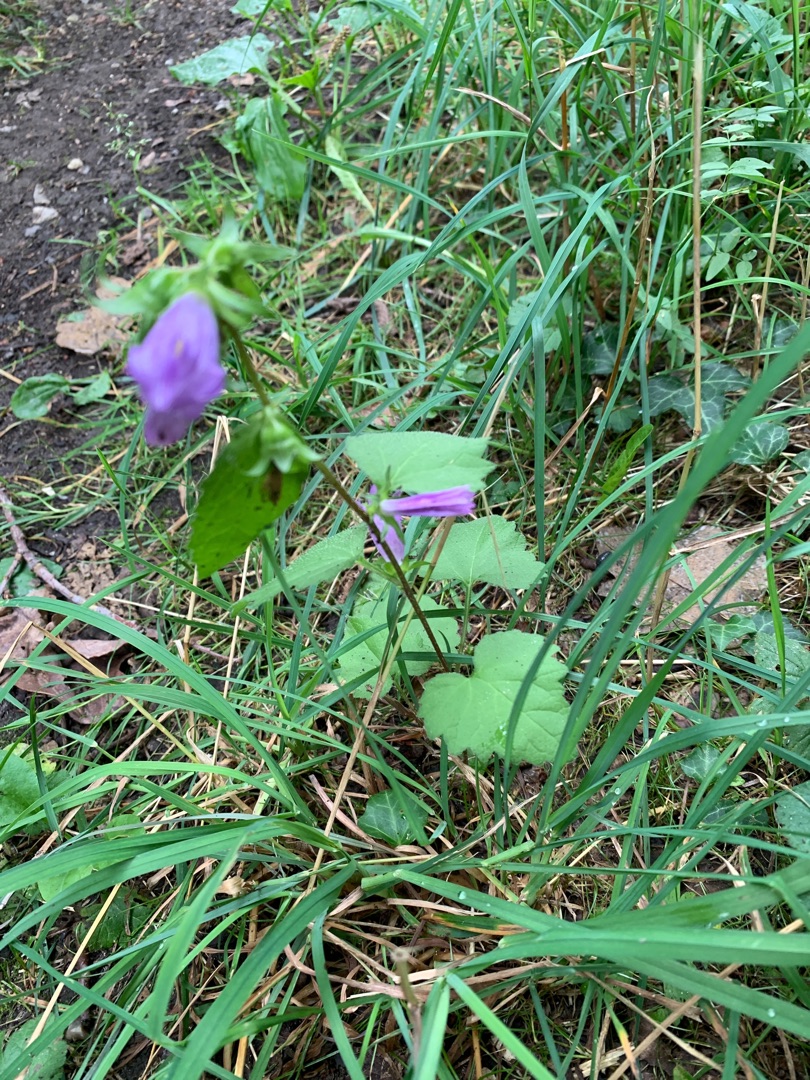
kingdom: Plantae
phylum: Tracheophyta
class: Magnoliopsida
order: Asterales
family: Campanulaceae
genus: Campanula
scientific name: Campanula trachelium
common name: Nælde-klokke
